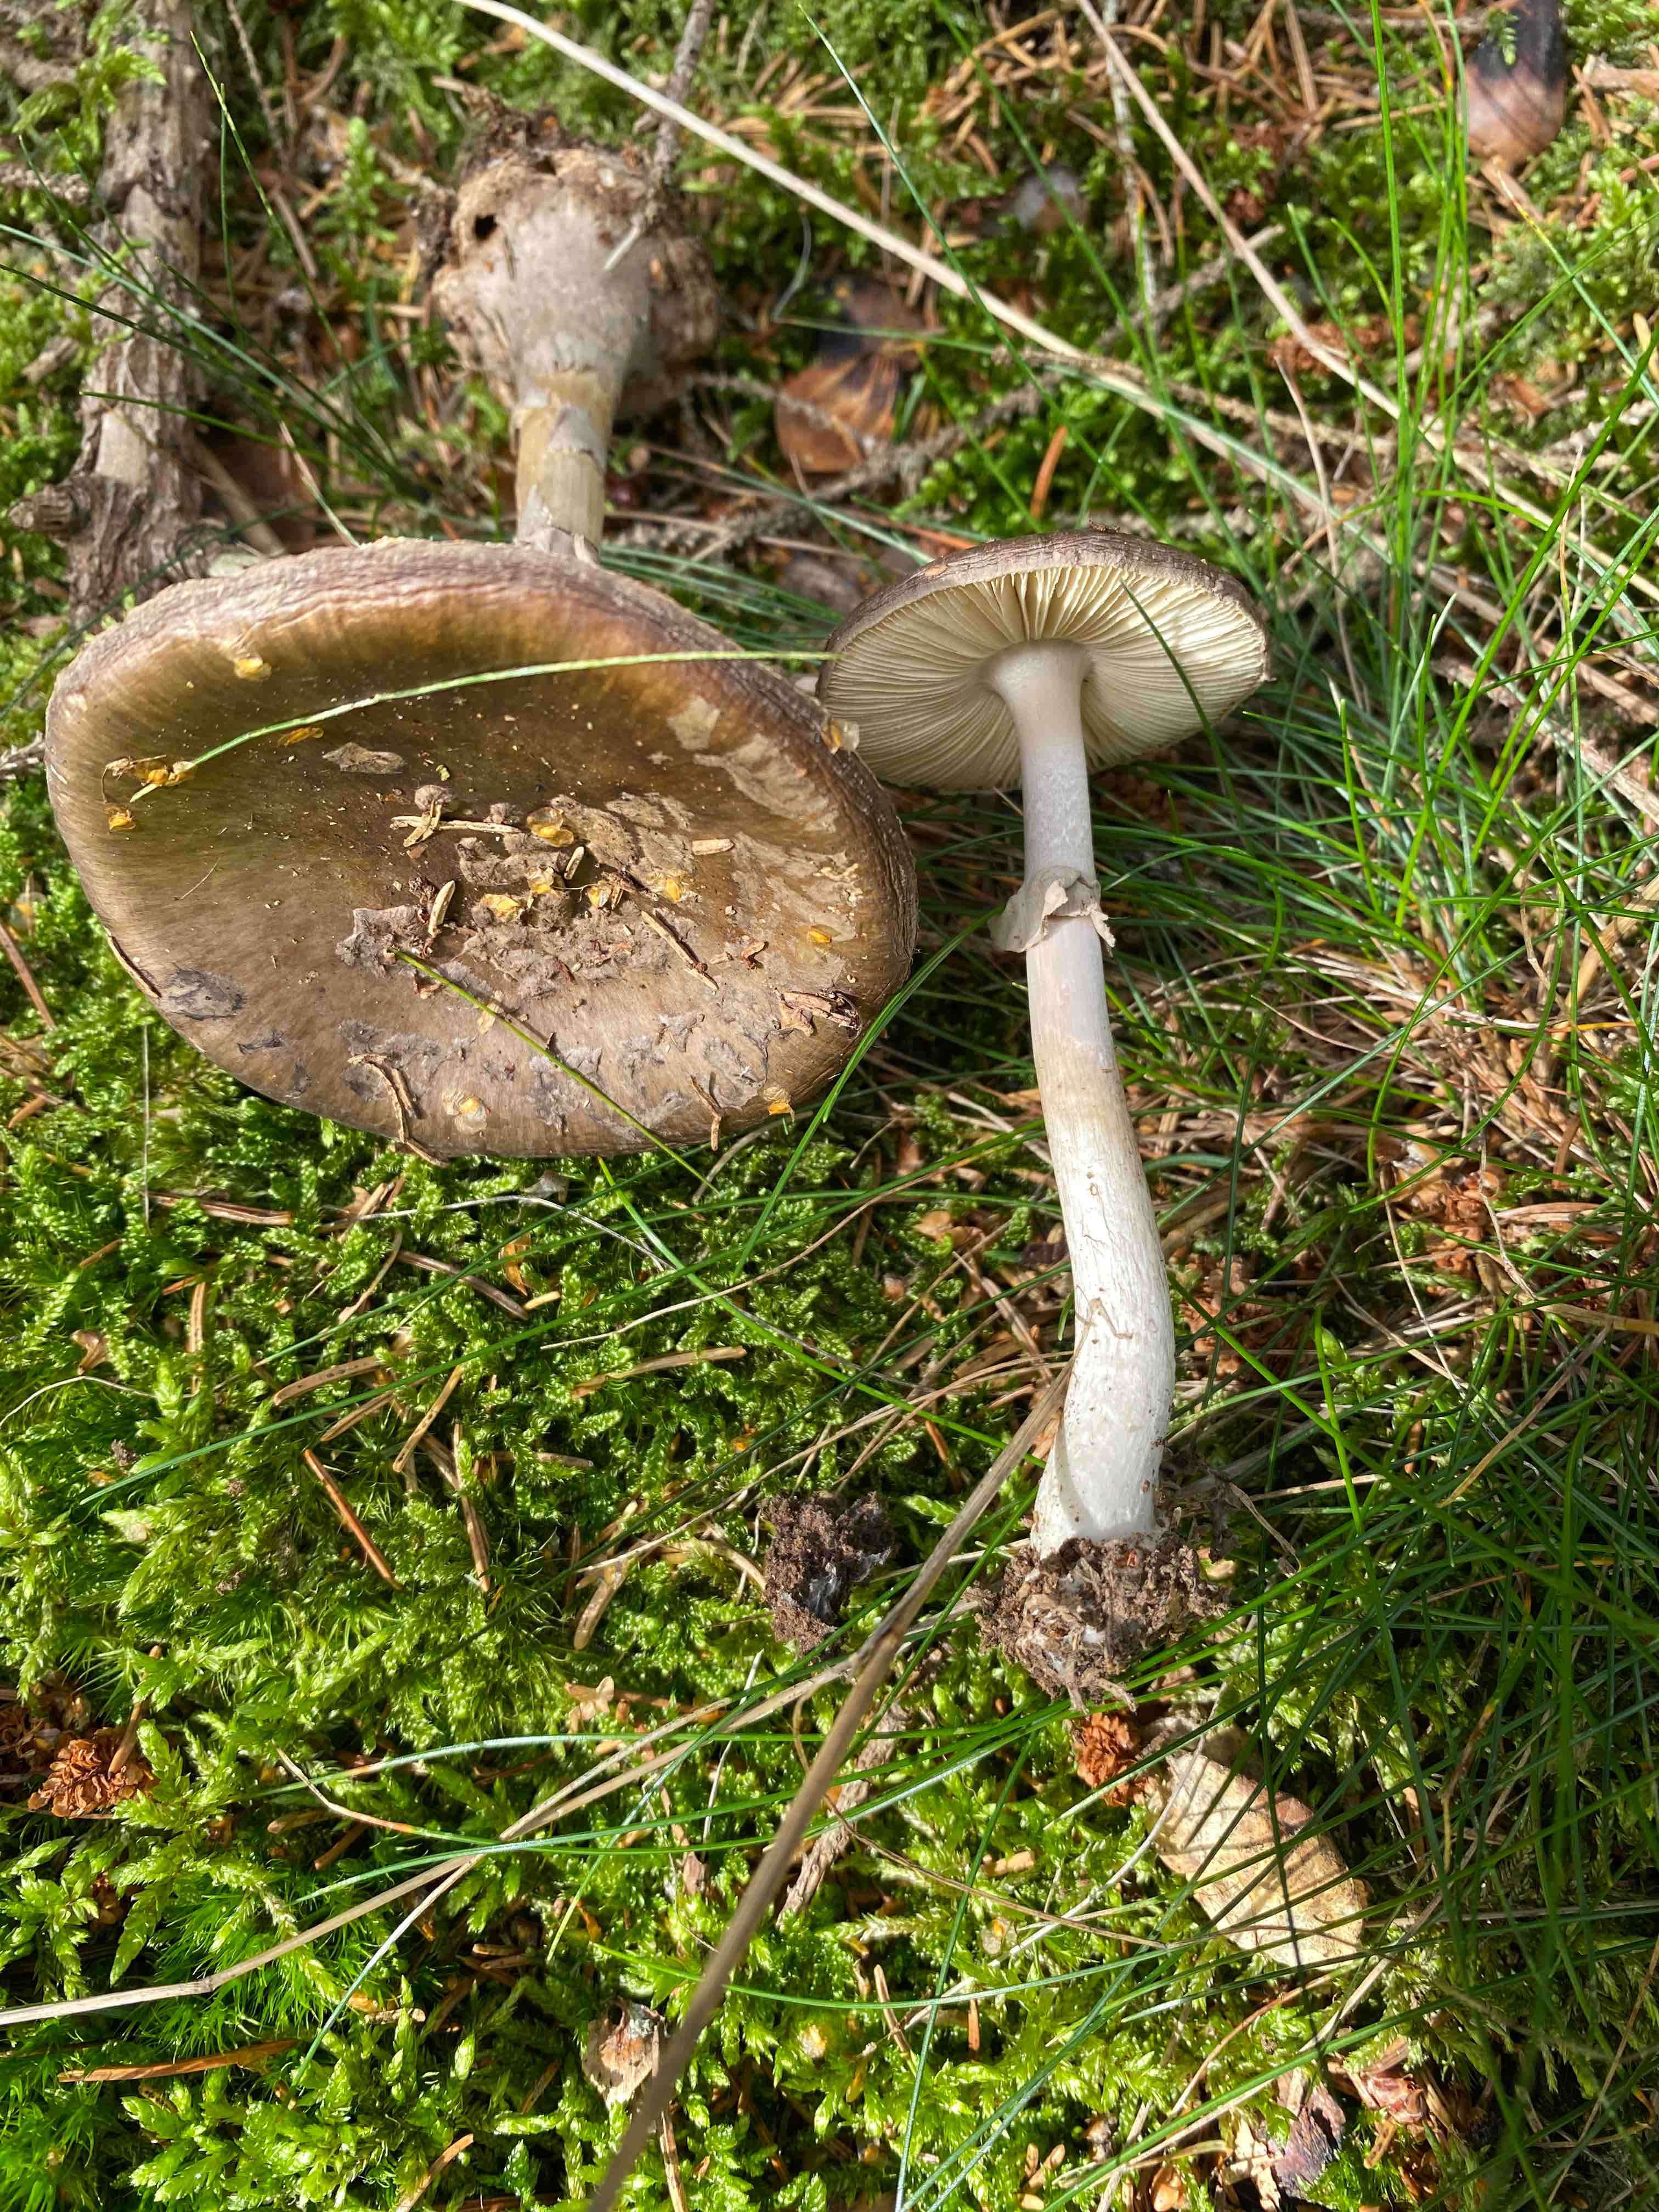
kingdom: Fungi
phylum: Basidiomycota
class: Agaricomycetes
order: Agaricales
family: Amanitaceae
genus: Amanita
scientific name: Amanita porphyria
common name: porfyr-fluesvamp
